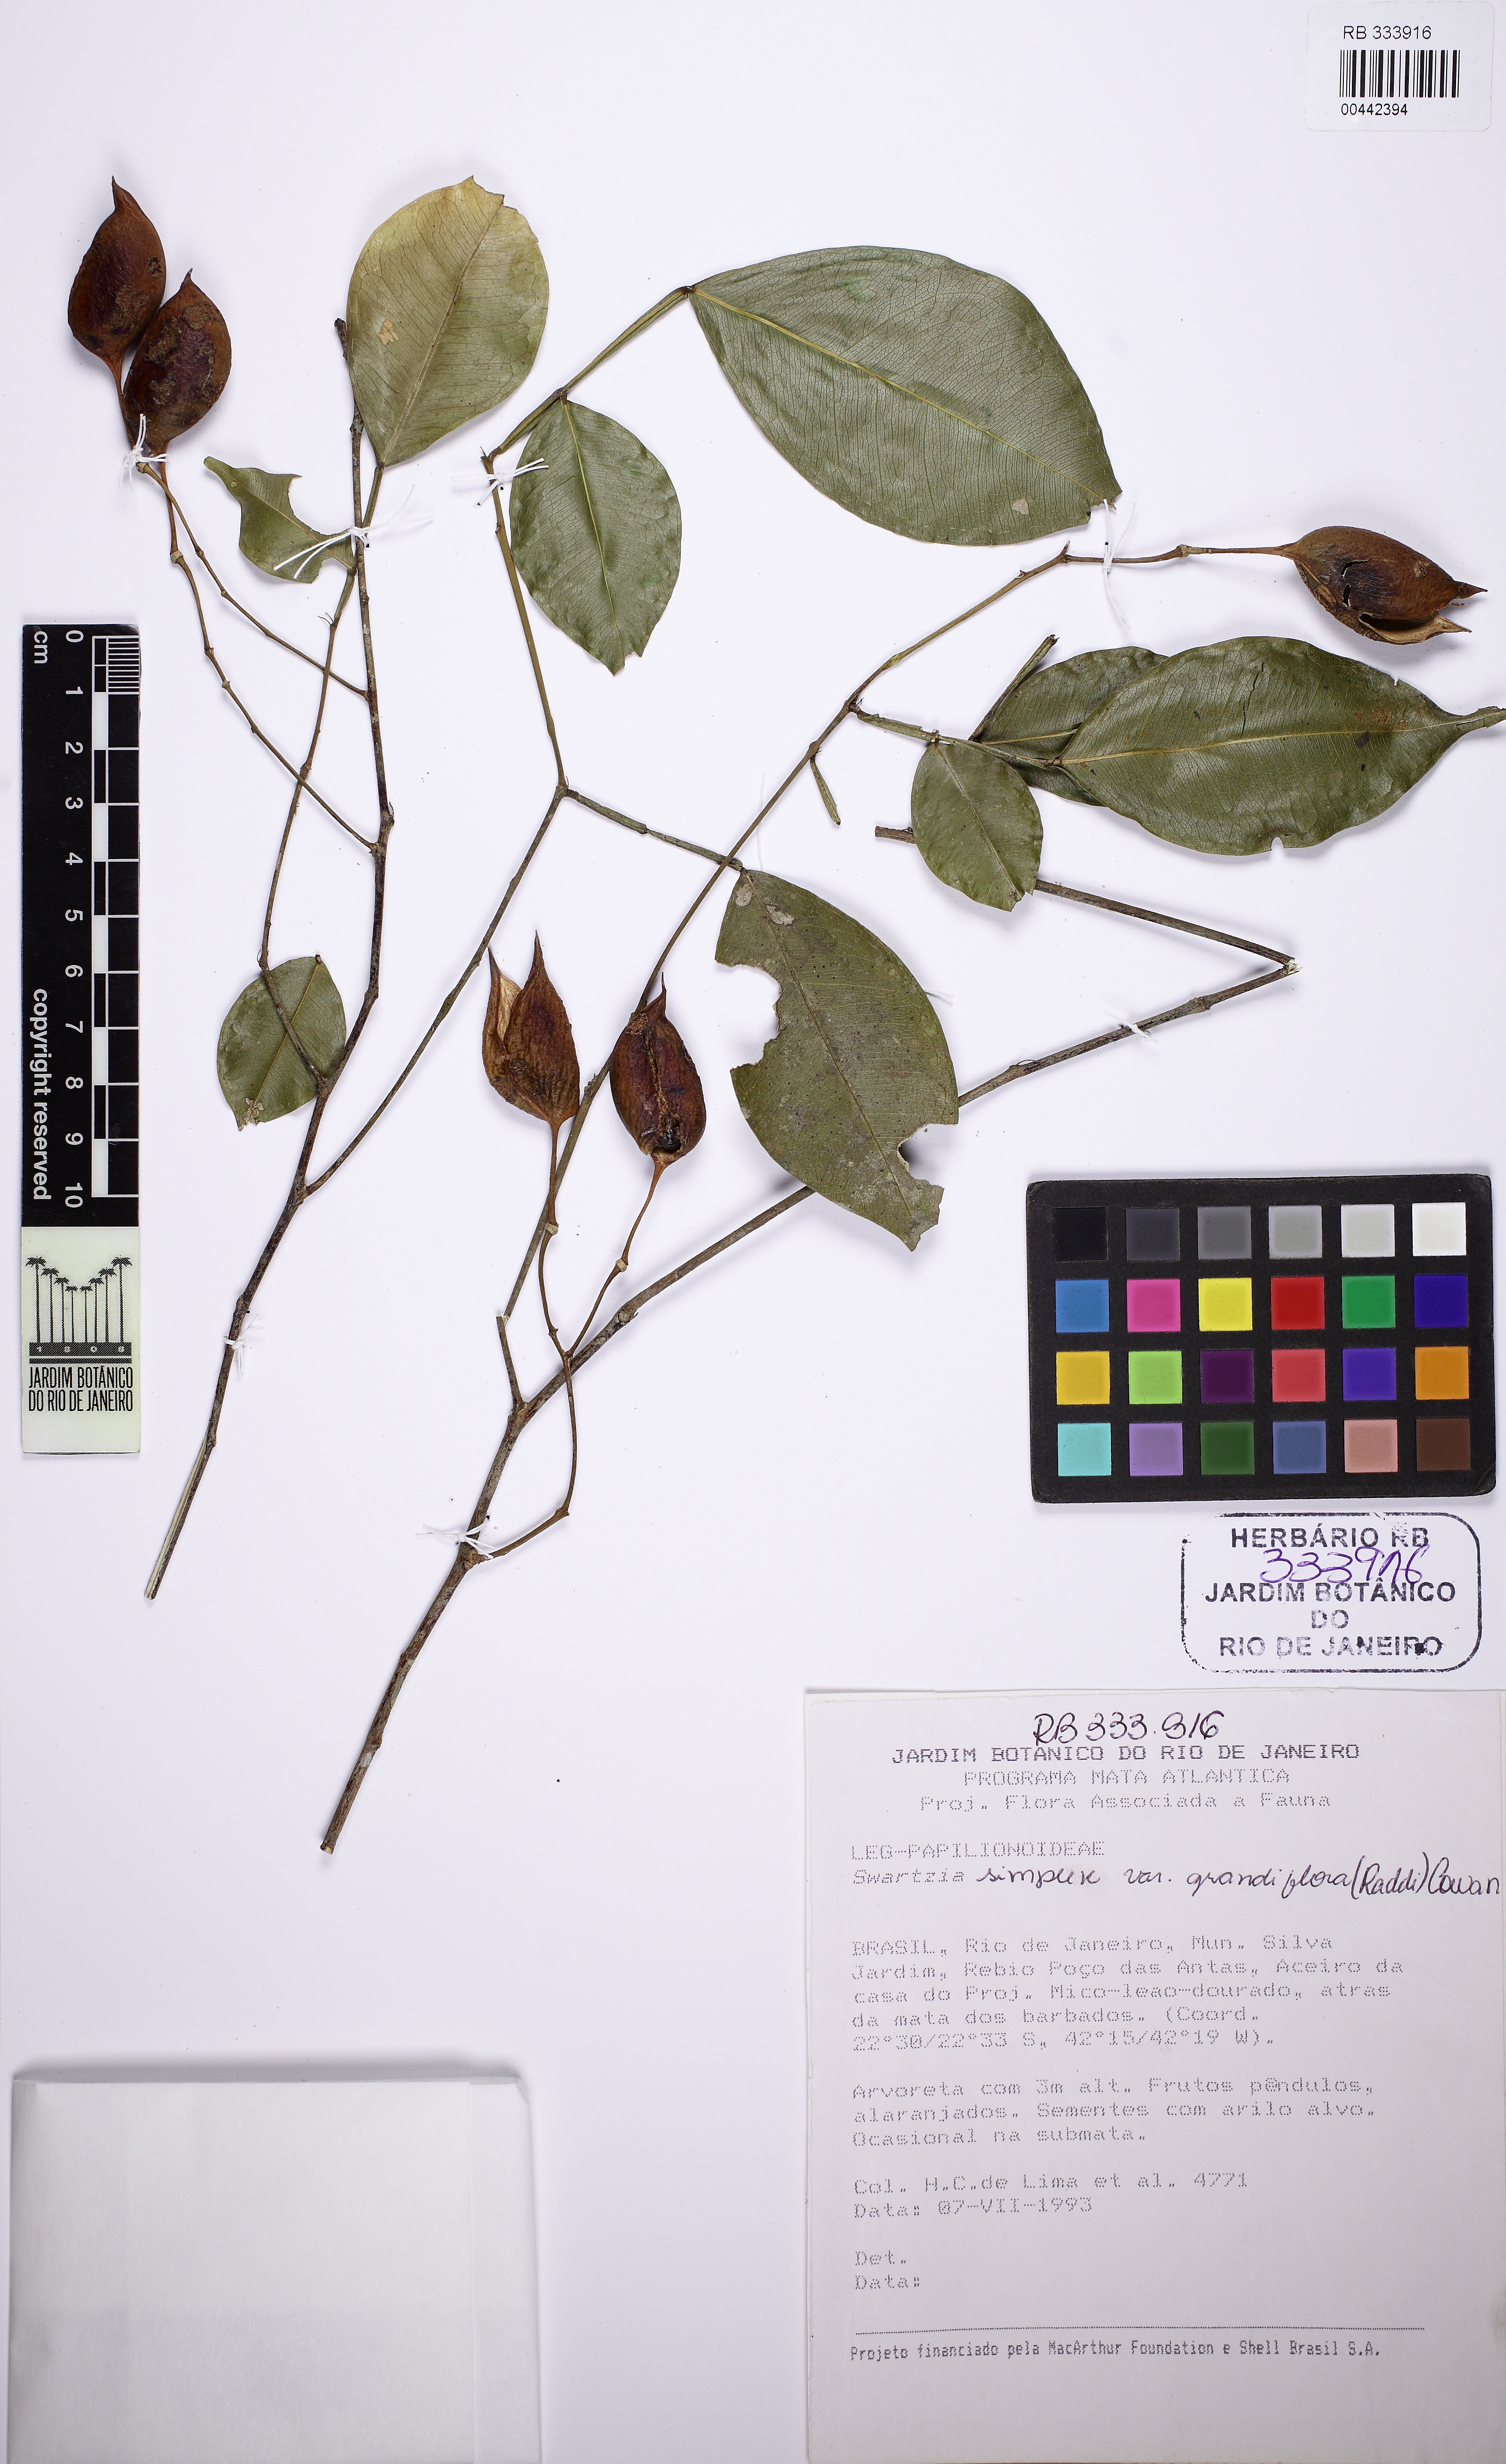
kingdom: Plantae
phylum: Tracheophyta
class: Magnoliopsida
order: Fabales
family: Fabaceae
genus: Swartzia
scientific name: Swartzia simplex
